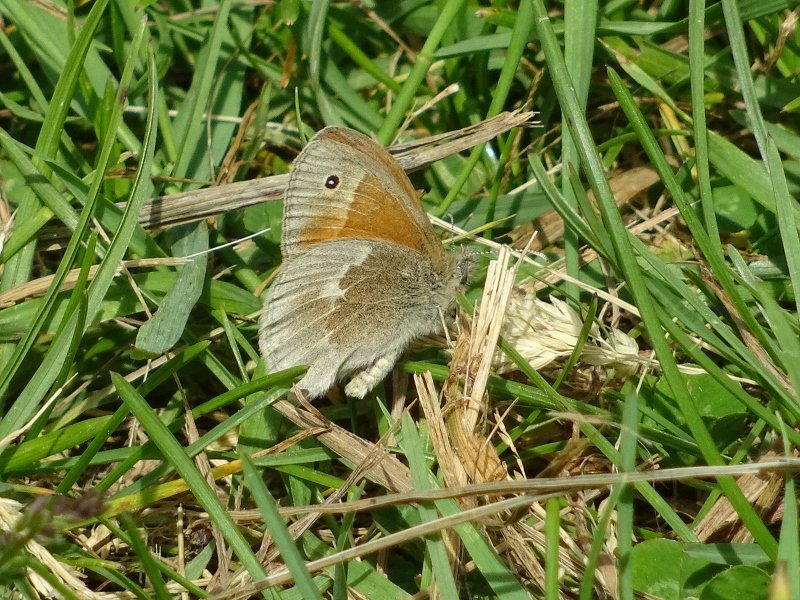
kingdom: Animalia
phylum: Arthropoda
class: Insecta
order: Lepidoptera
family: Nymphalidae
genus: Coenonympha
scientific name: Coenonympha tullia
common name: Large Heath
